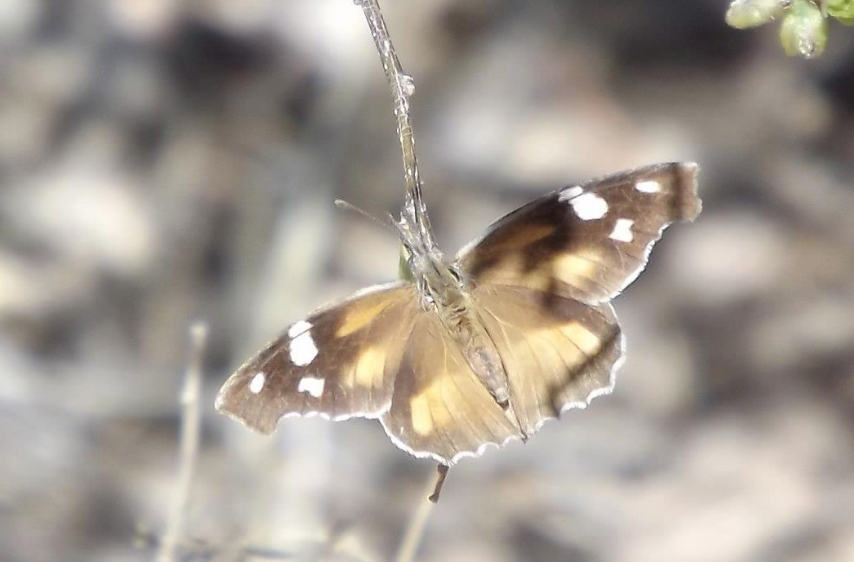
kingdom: Animalia
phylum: Arthropoda
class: Insecta
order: Lepidoptera
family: Nymphalidae
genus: Libytheana
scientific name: Libytheana carinenta
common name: American Snout
